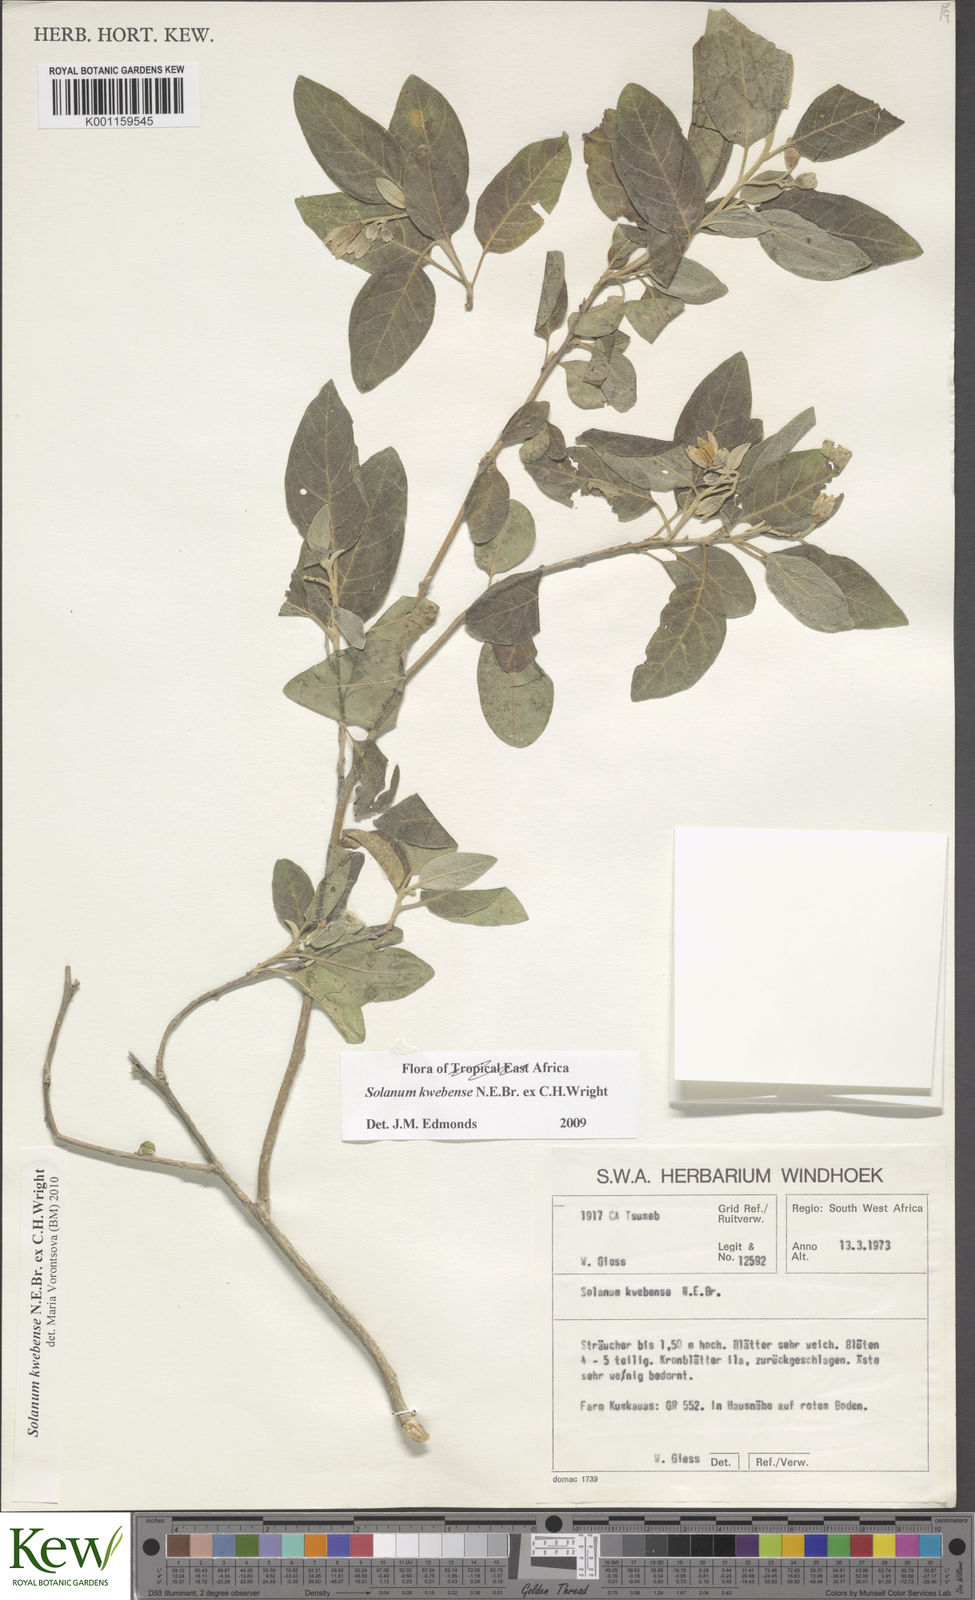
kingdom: Plantae
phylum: Tracheophyta
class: Magnoliopsida
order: Solanales
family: Solanaceae
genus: Solanum
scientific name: Solanum tettense
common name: Mozambique bitter apple
